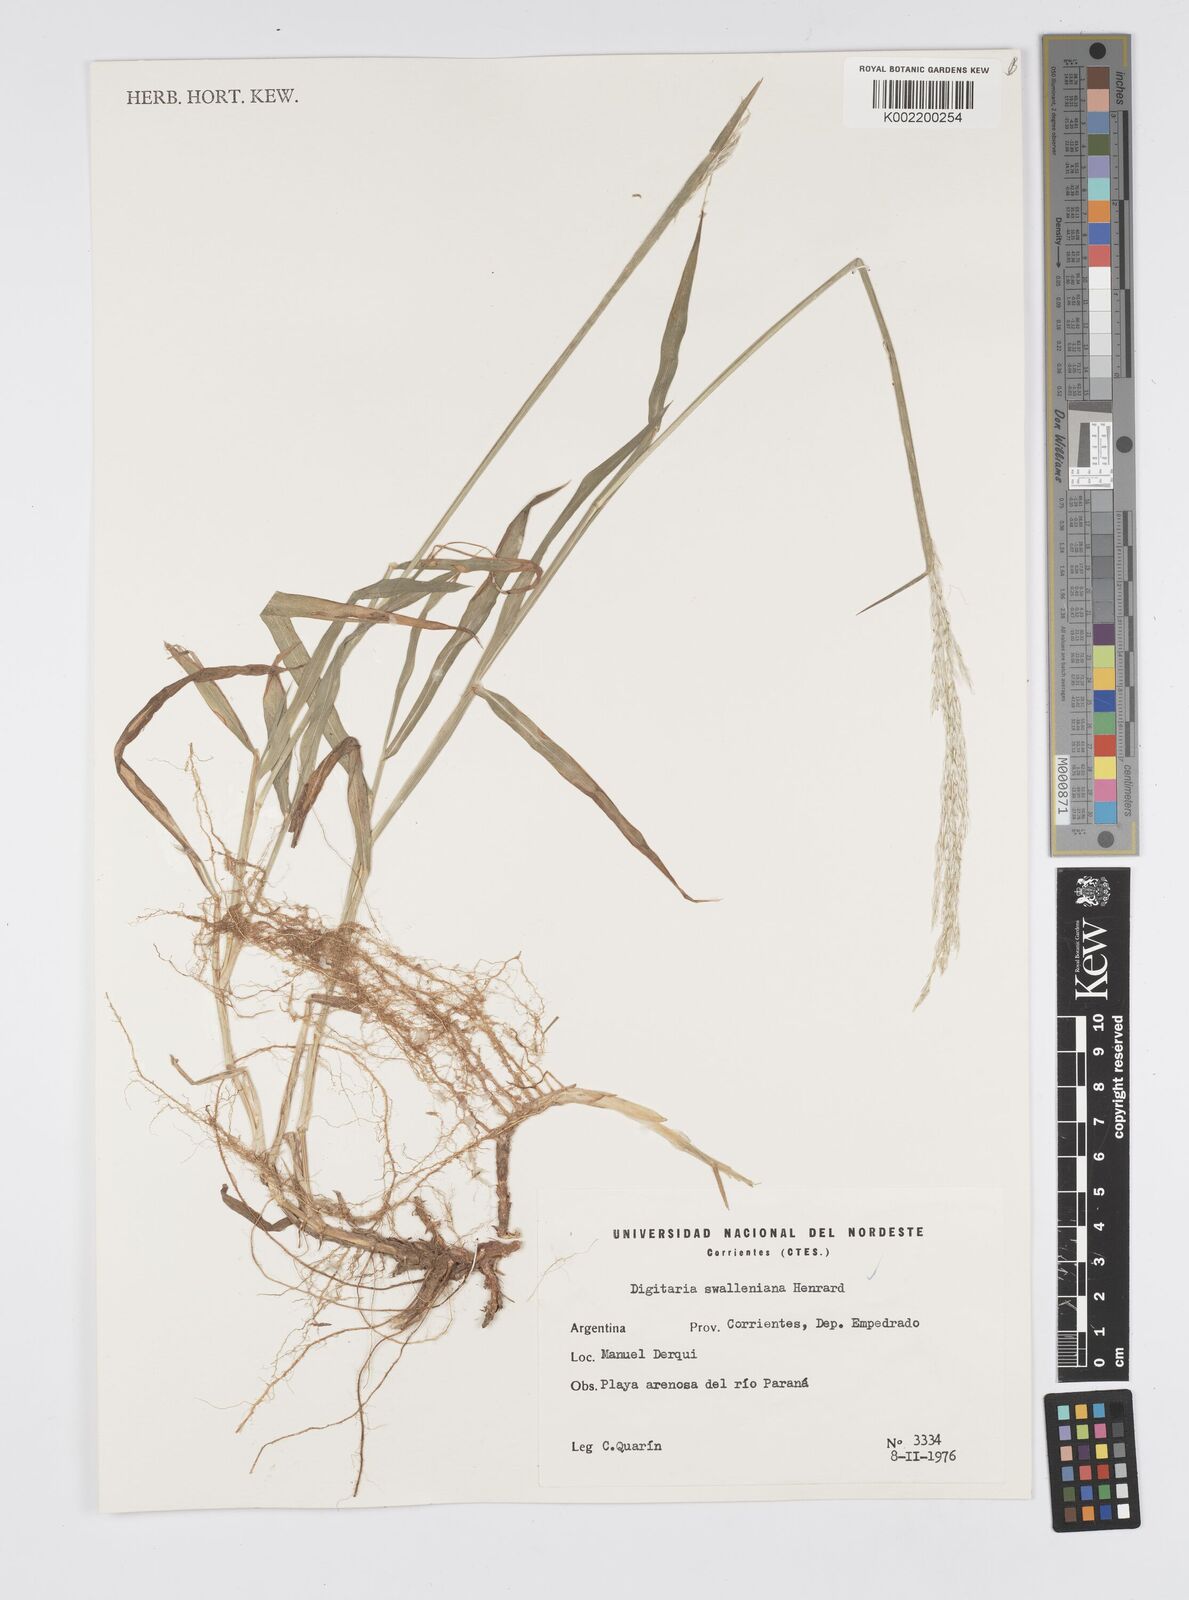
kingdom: Plantae
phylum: Tracheophyta
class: Liliopsida
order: Poales
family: Poaceae
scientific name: Poaceae
